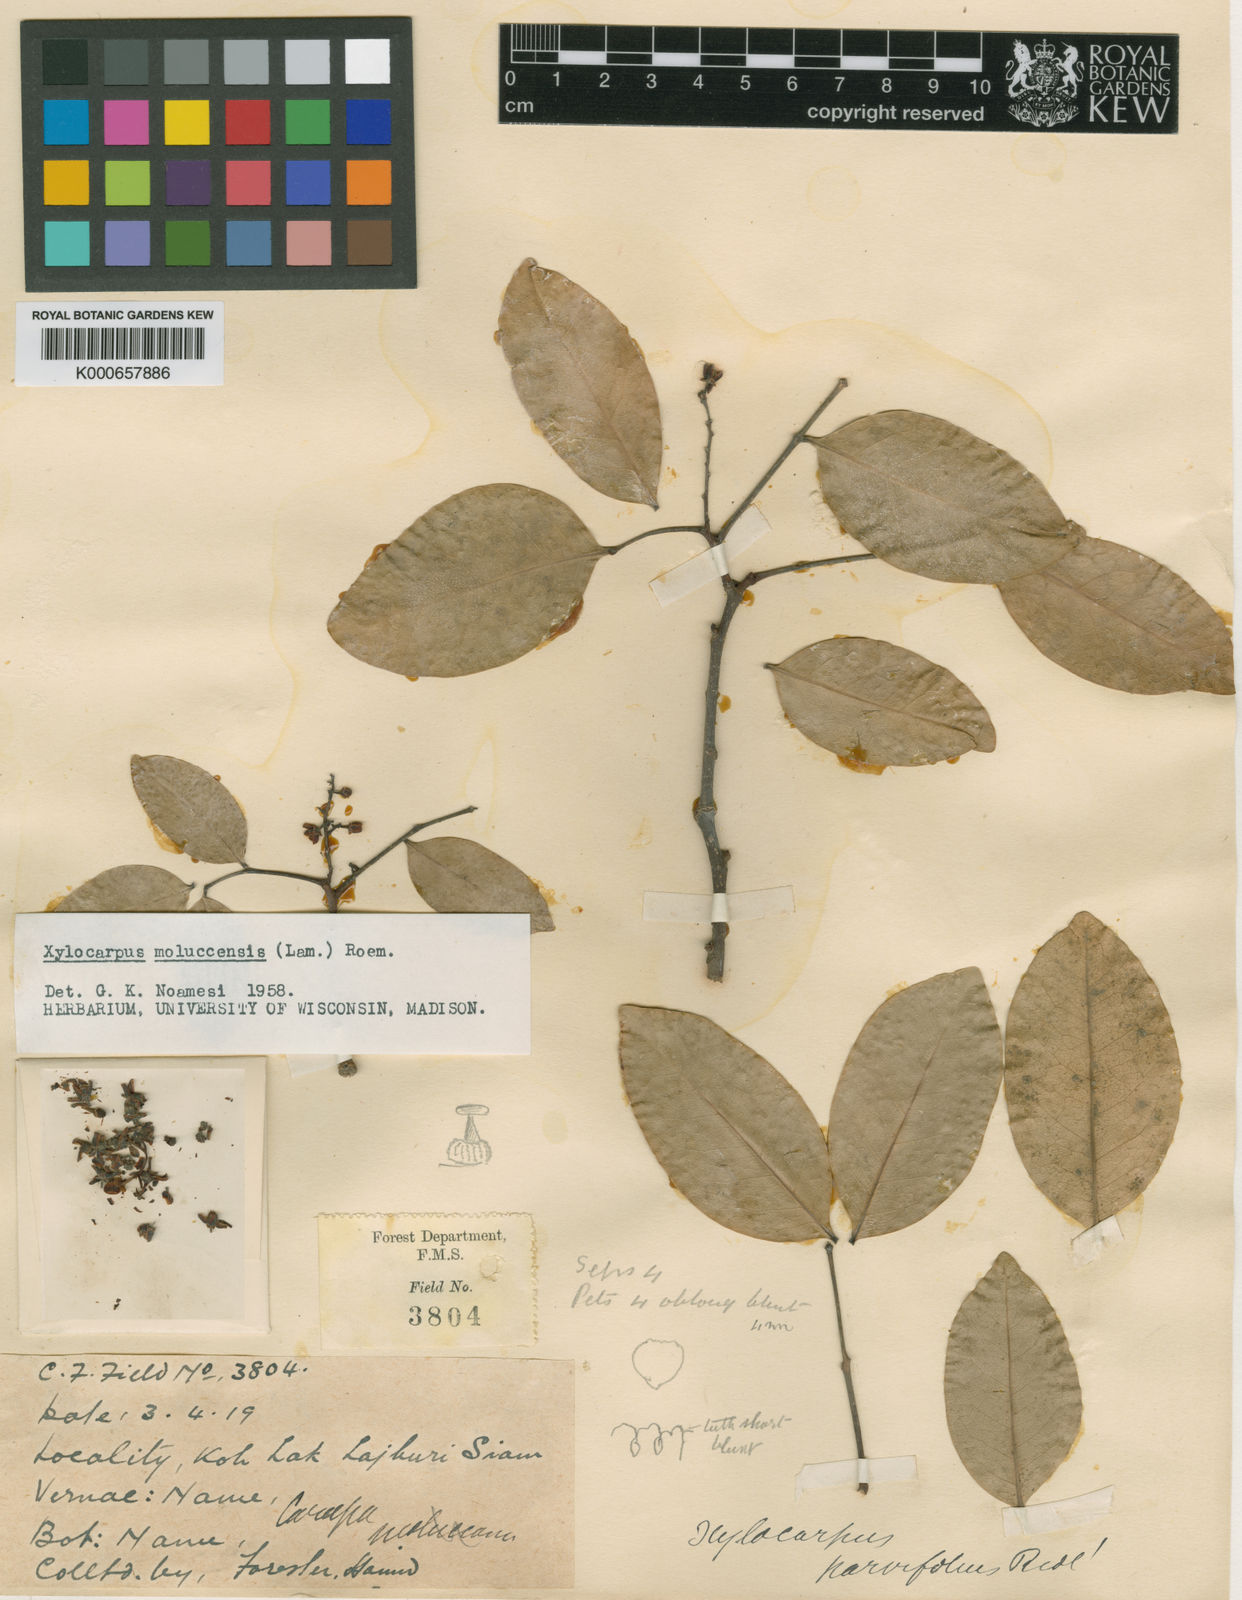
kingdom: Plantae
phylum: Tracheophyta
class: Magnoliopsida
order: Sapindales
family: Meliaceae
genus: Xylocarpus
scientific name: Xylocarpus moluccensis
